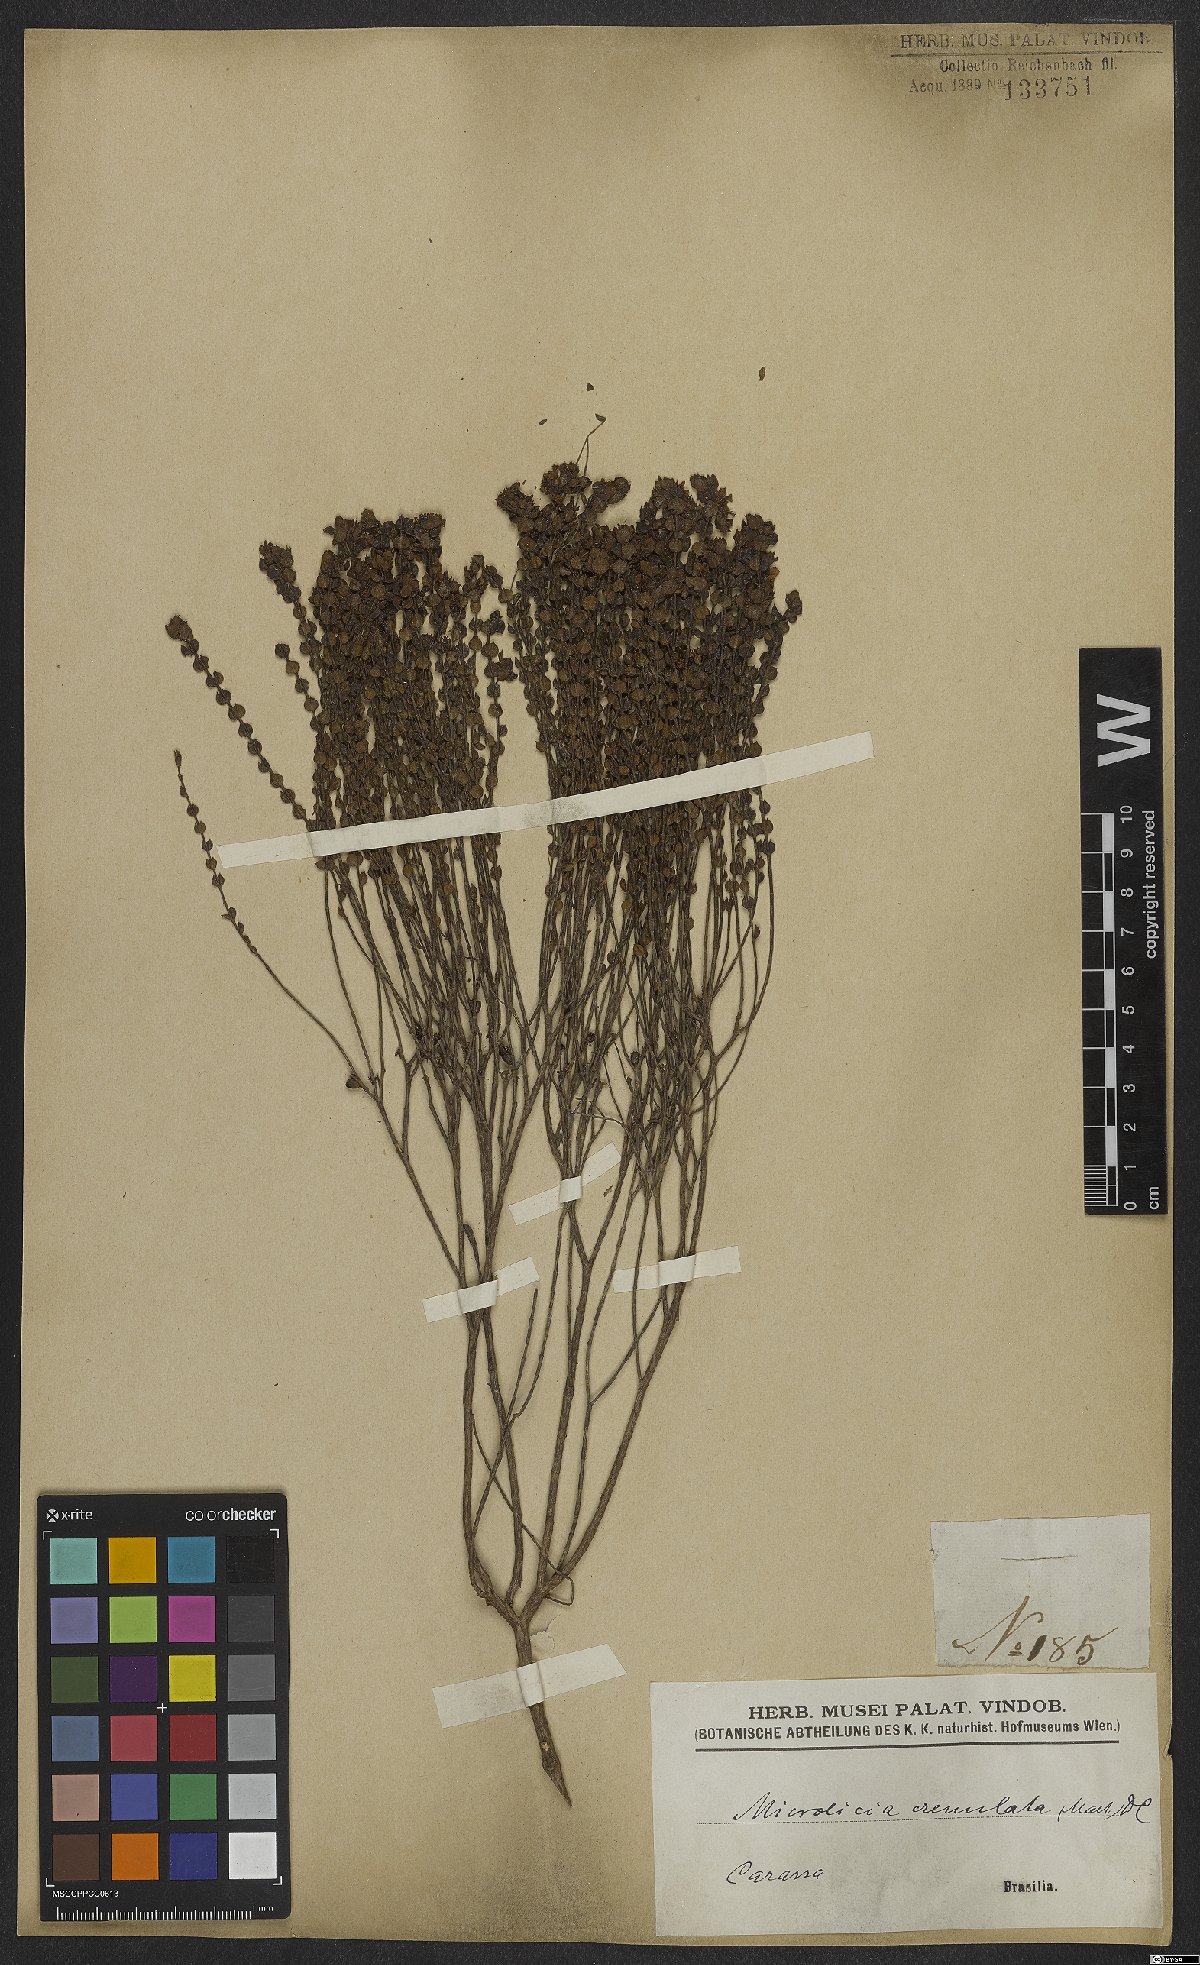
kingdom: Plantae
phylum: Tracheophyta
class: Magnoliopsida
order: Myrtales
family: Melastomataceae
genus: Microlicia
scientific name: Microlicia crenulata
